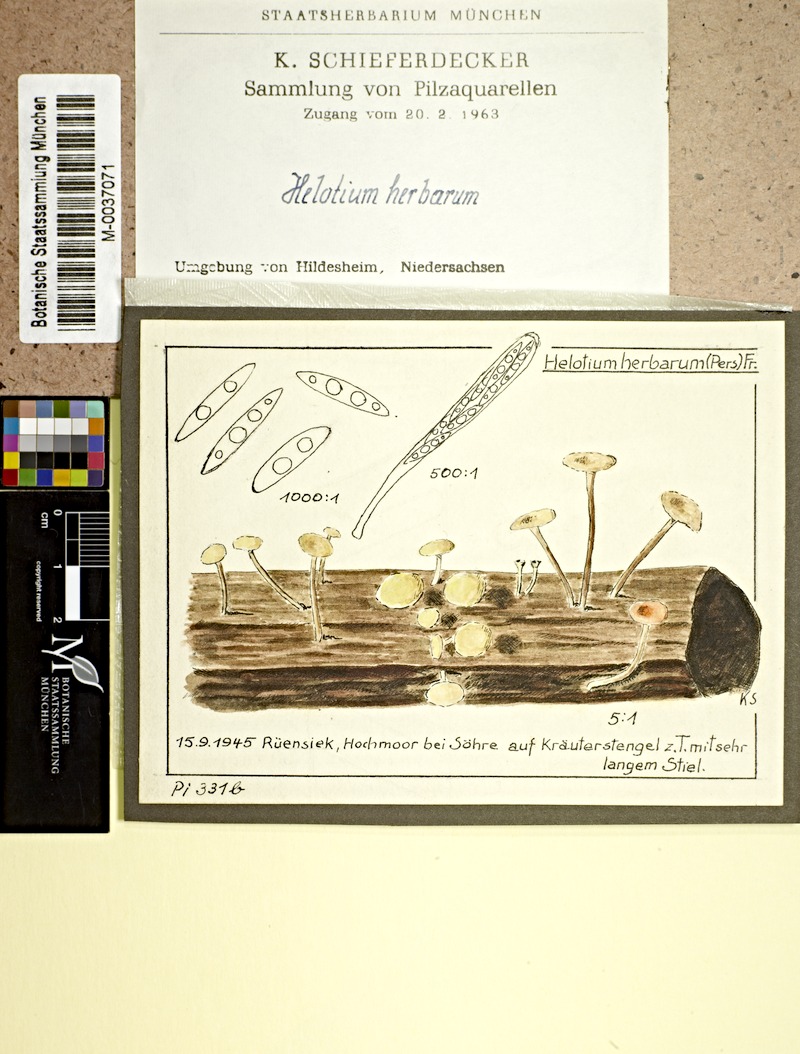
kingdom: Fungi
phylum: Ascomycota
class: Leotiomycetes
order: Helotiales
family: Pezizellaceae
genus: Calycina
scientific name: Calycina herbarum
